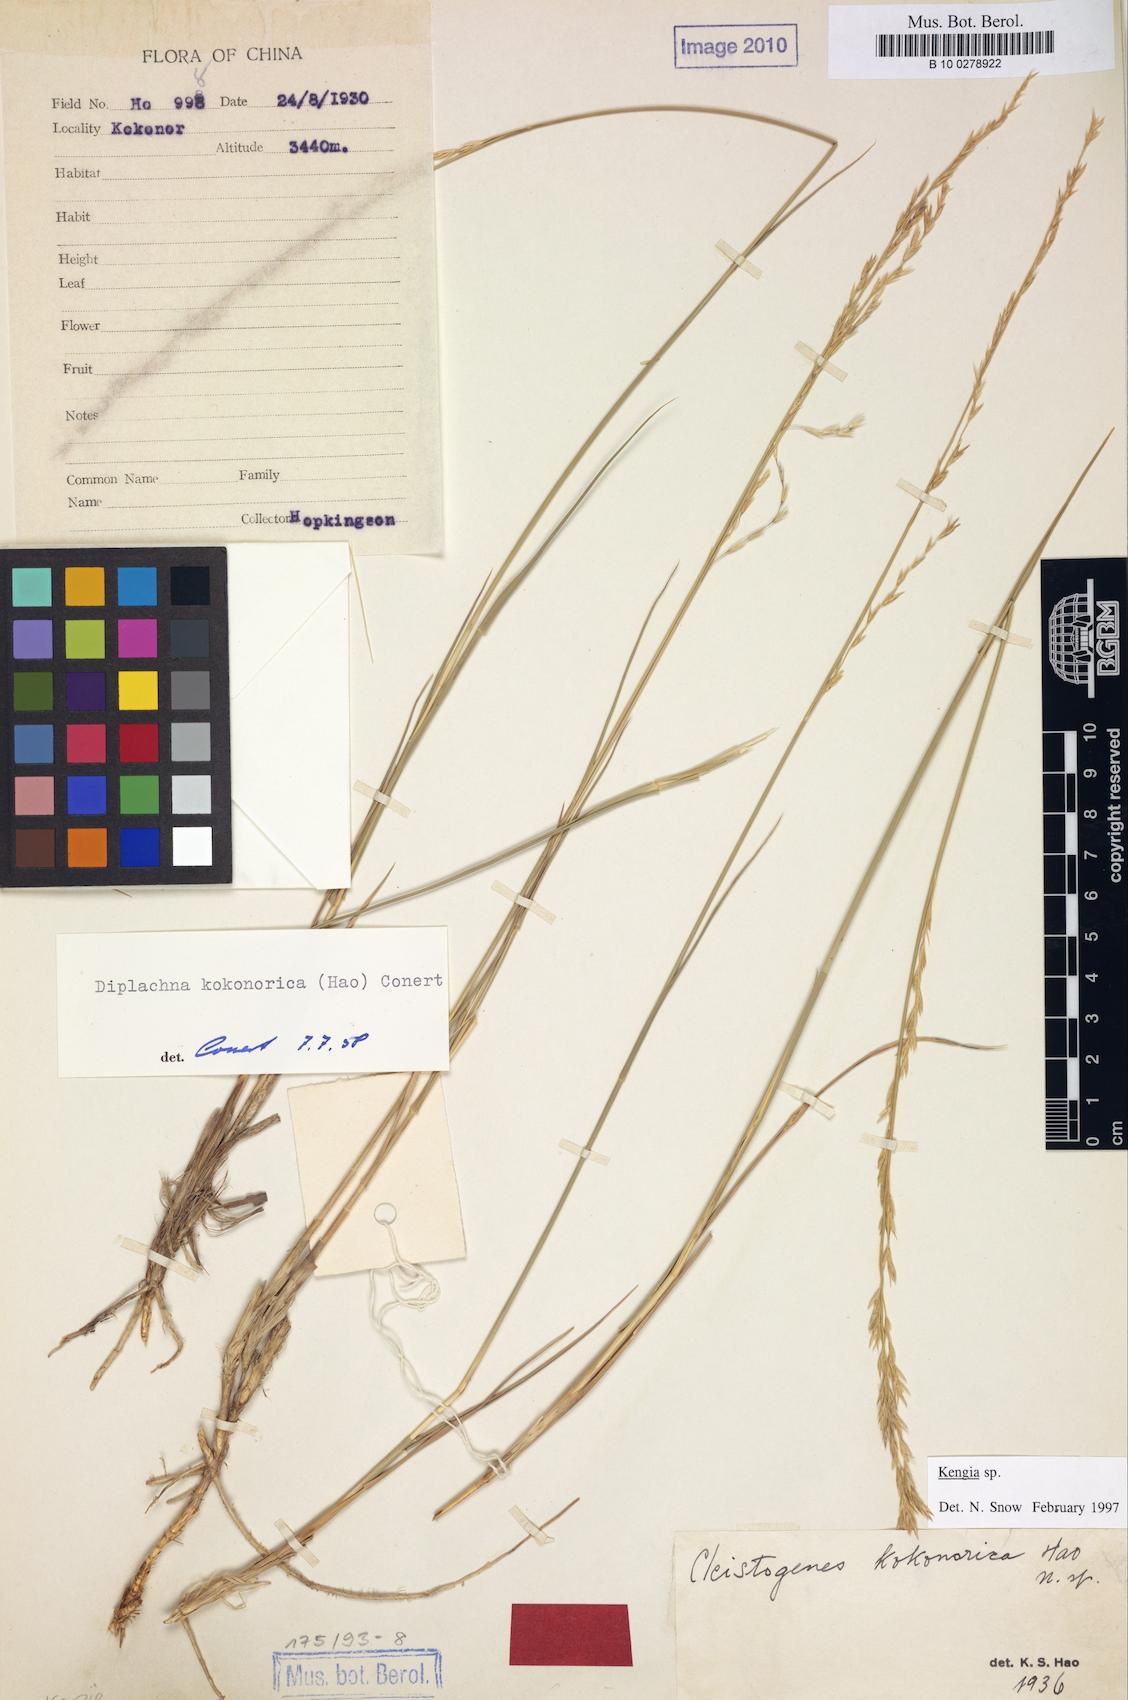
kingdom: Plantae
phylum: Tracheophyta
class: Liliopsida
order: Poales
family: Poaceae
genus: Orinus
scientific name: Orinus kokonorica
